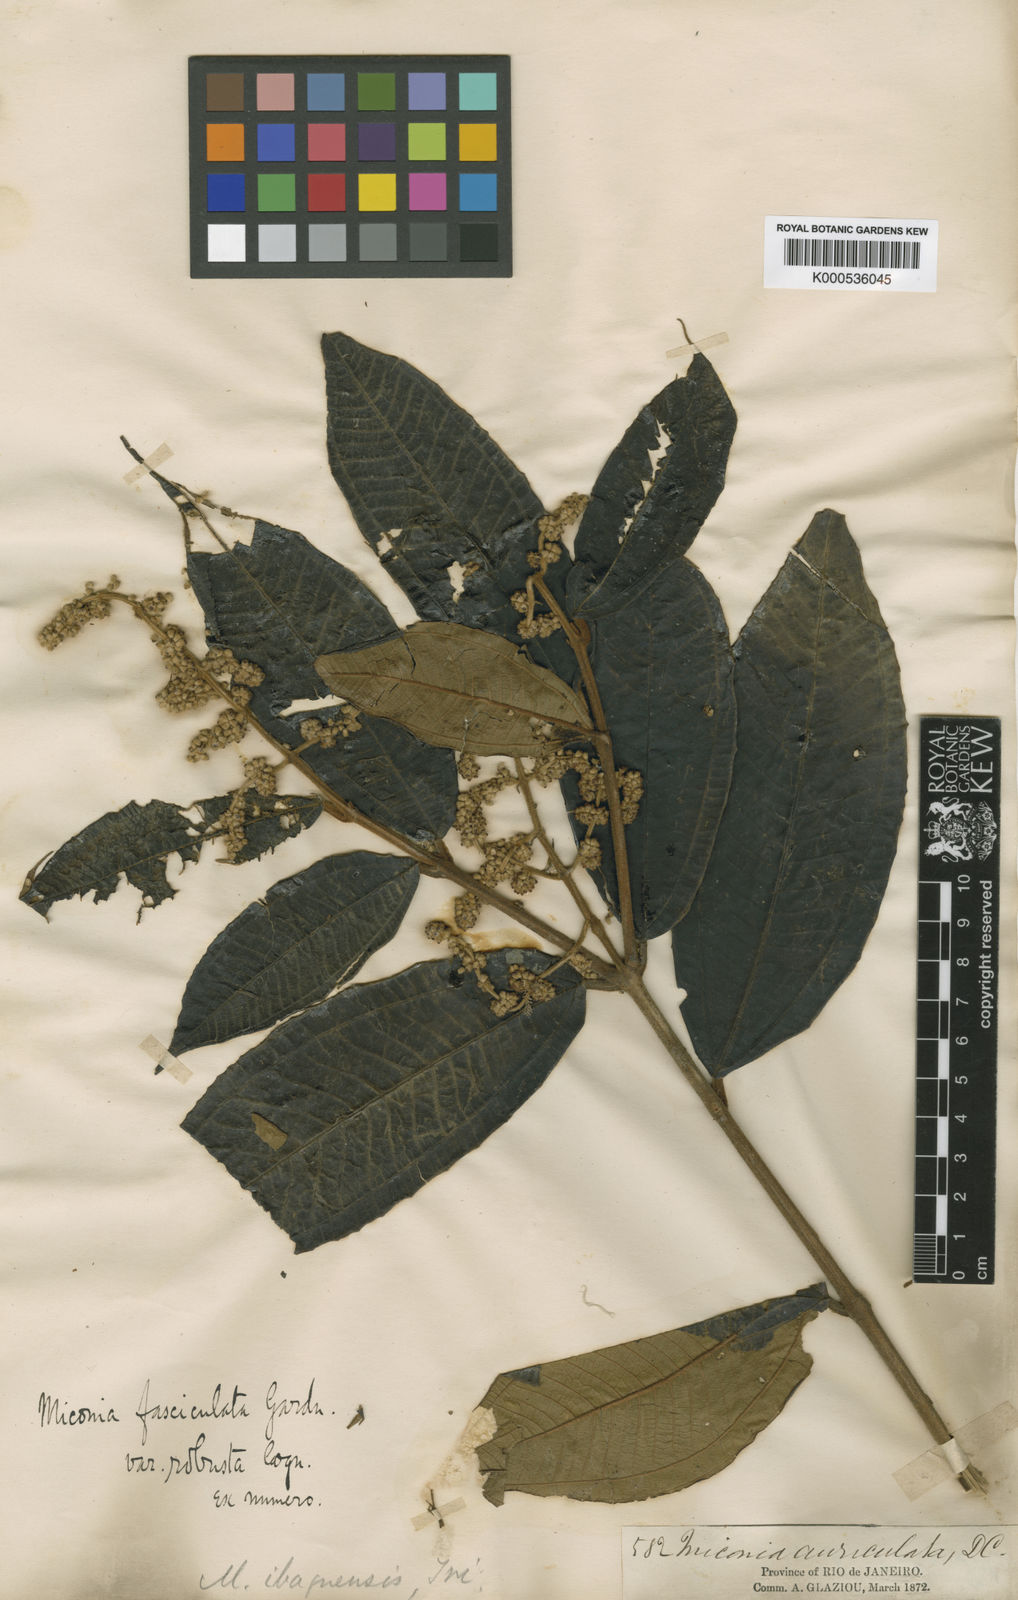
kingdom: Plantae
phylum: Tracheophyta
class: Magnoliopsida
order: Myrtales
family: Melastomataceae
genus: Miconia
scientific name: Miconia fasciculata
